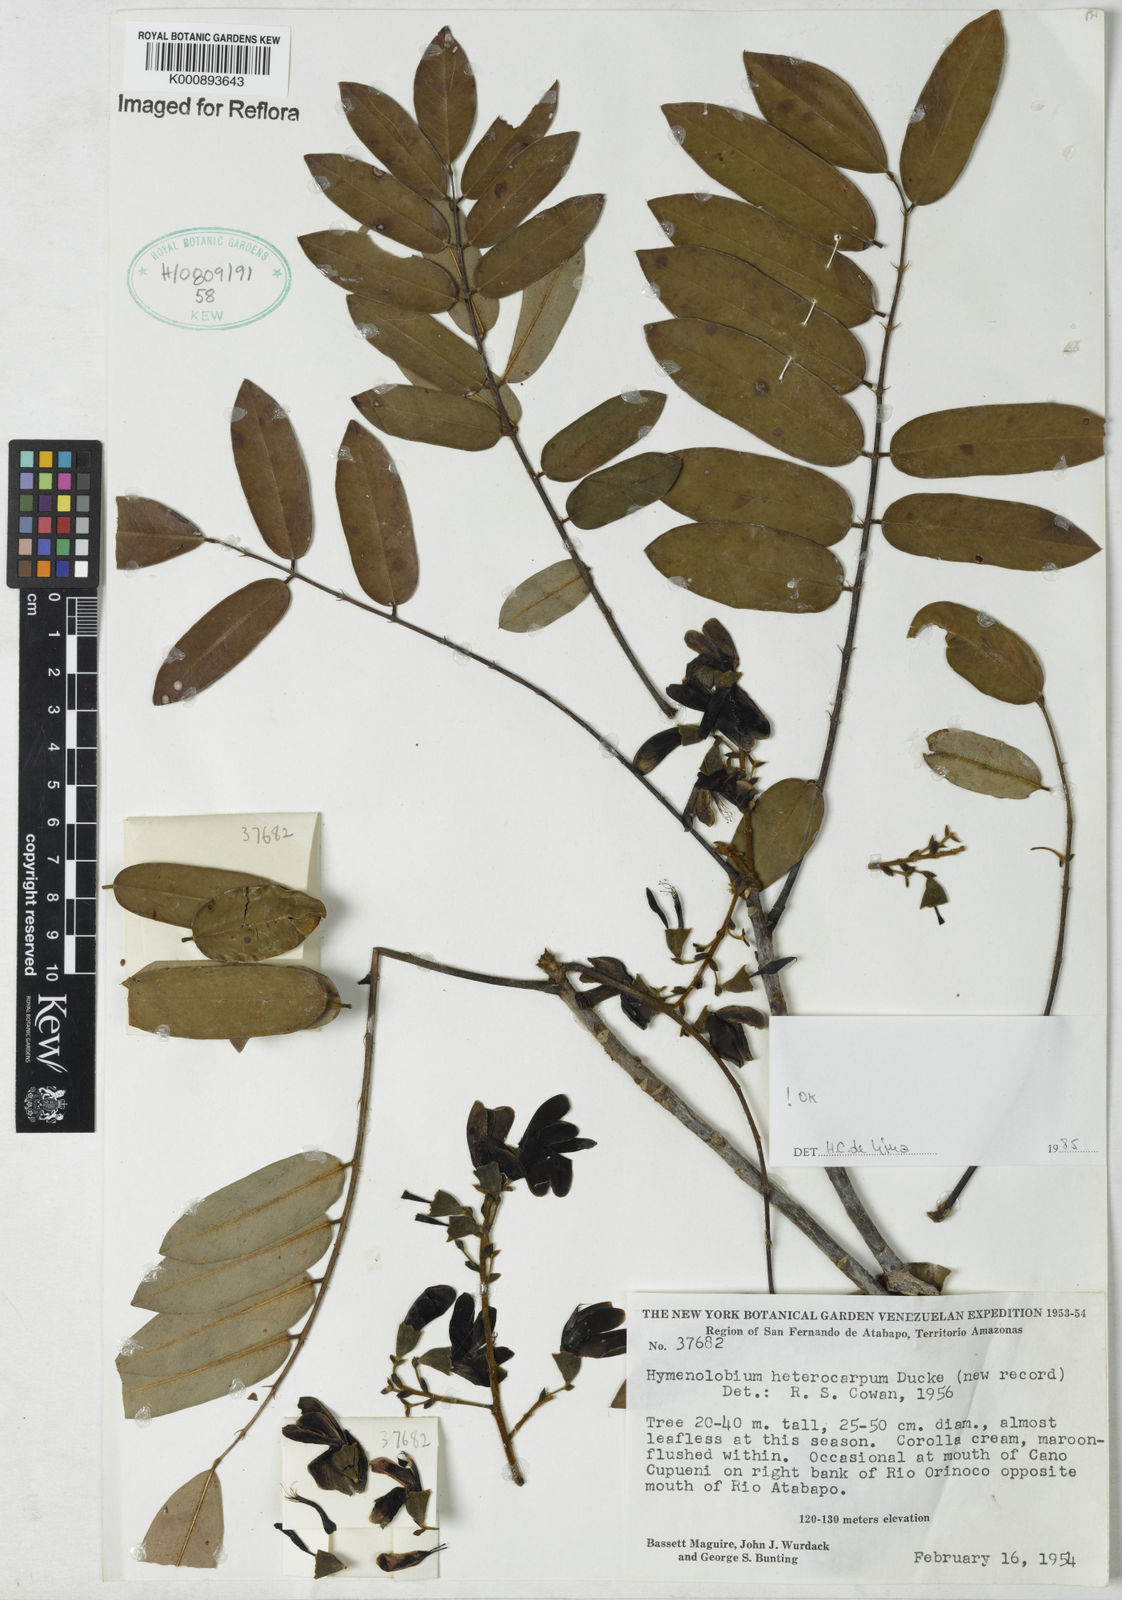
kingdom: Plantae
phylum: Tracheophyta
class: Magnoliopsida
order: Fabales
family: Fabaceae
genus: Hymenolobium
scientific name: Hymenolobium heterocarpum
